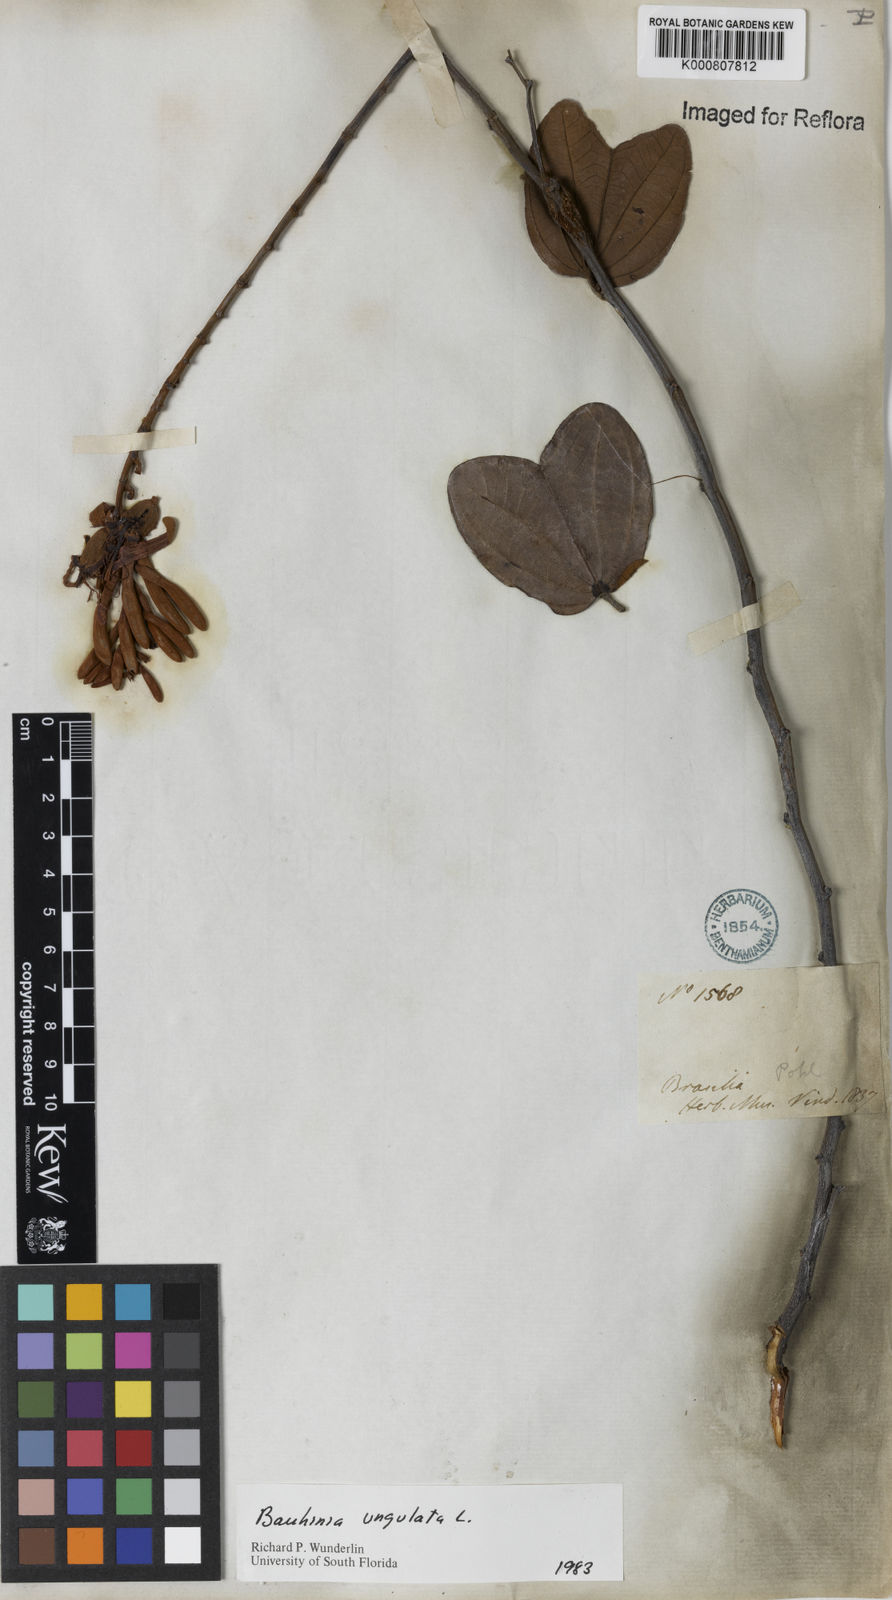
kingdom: Plantae
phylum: Tracheophyta
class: Magnoliopsida
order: Fabales
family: Fabaceae
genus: Bauhinia
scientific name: Bauhinia ungulata
